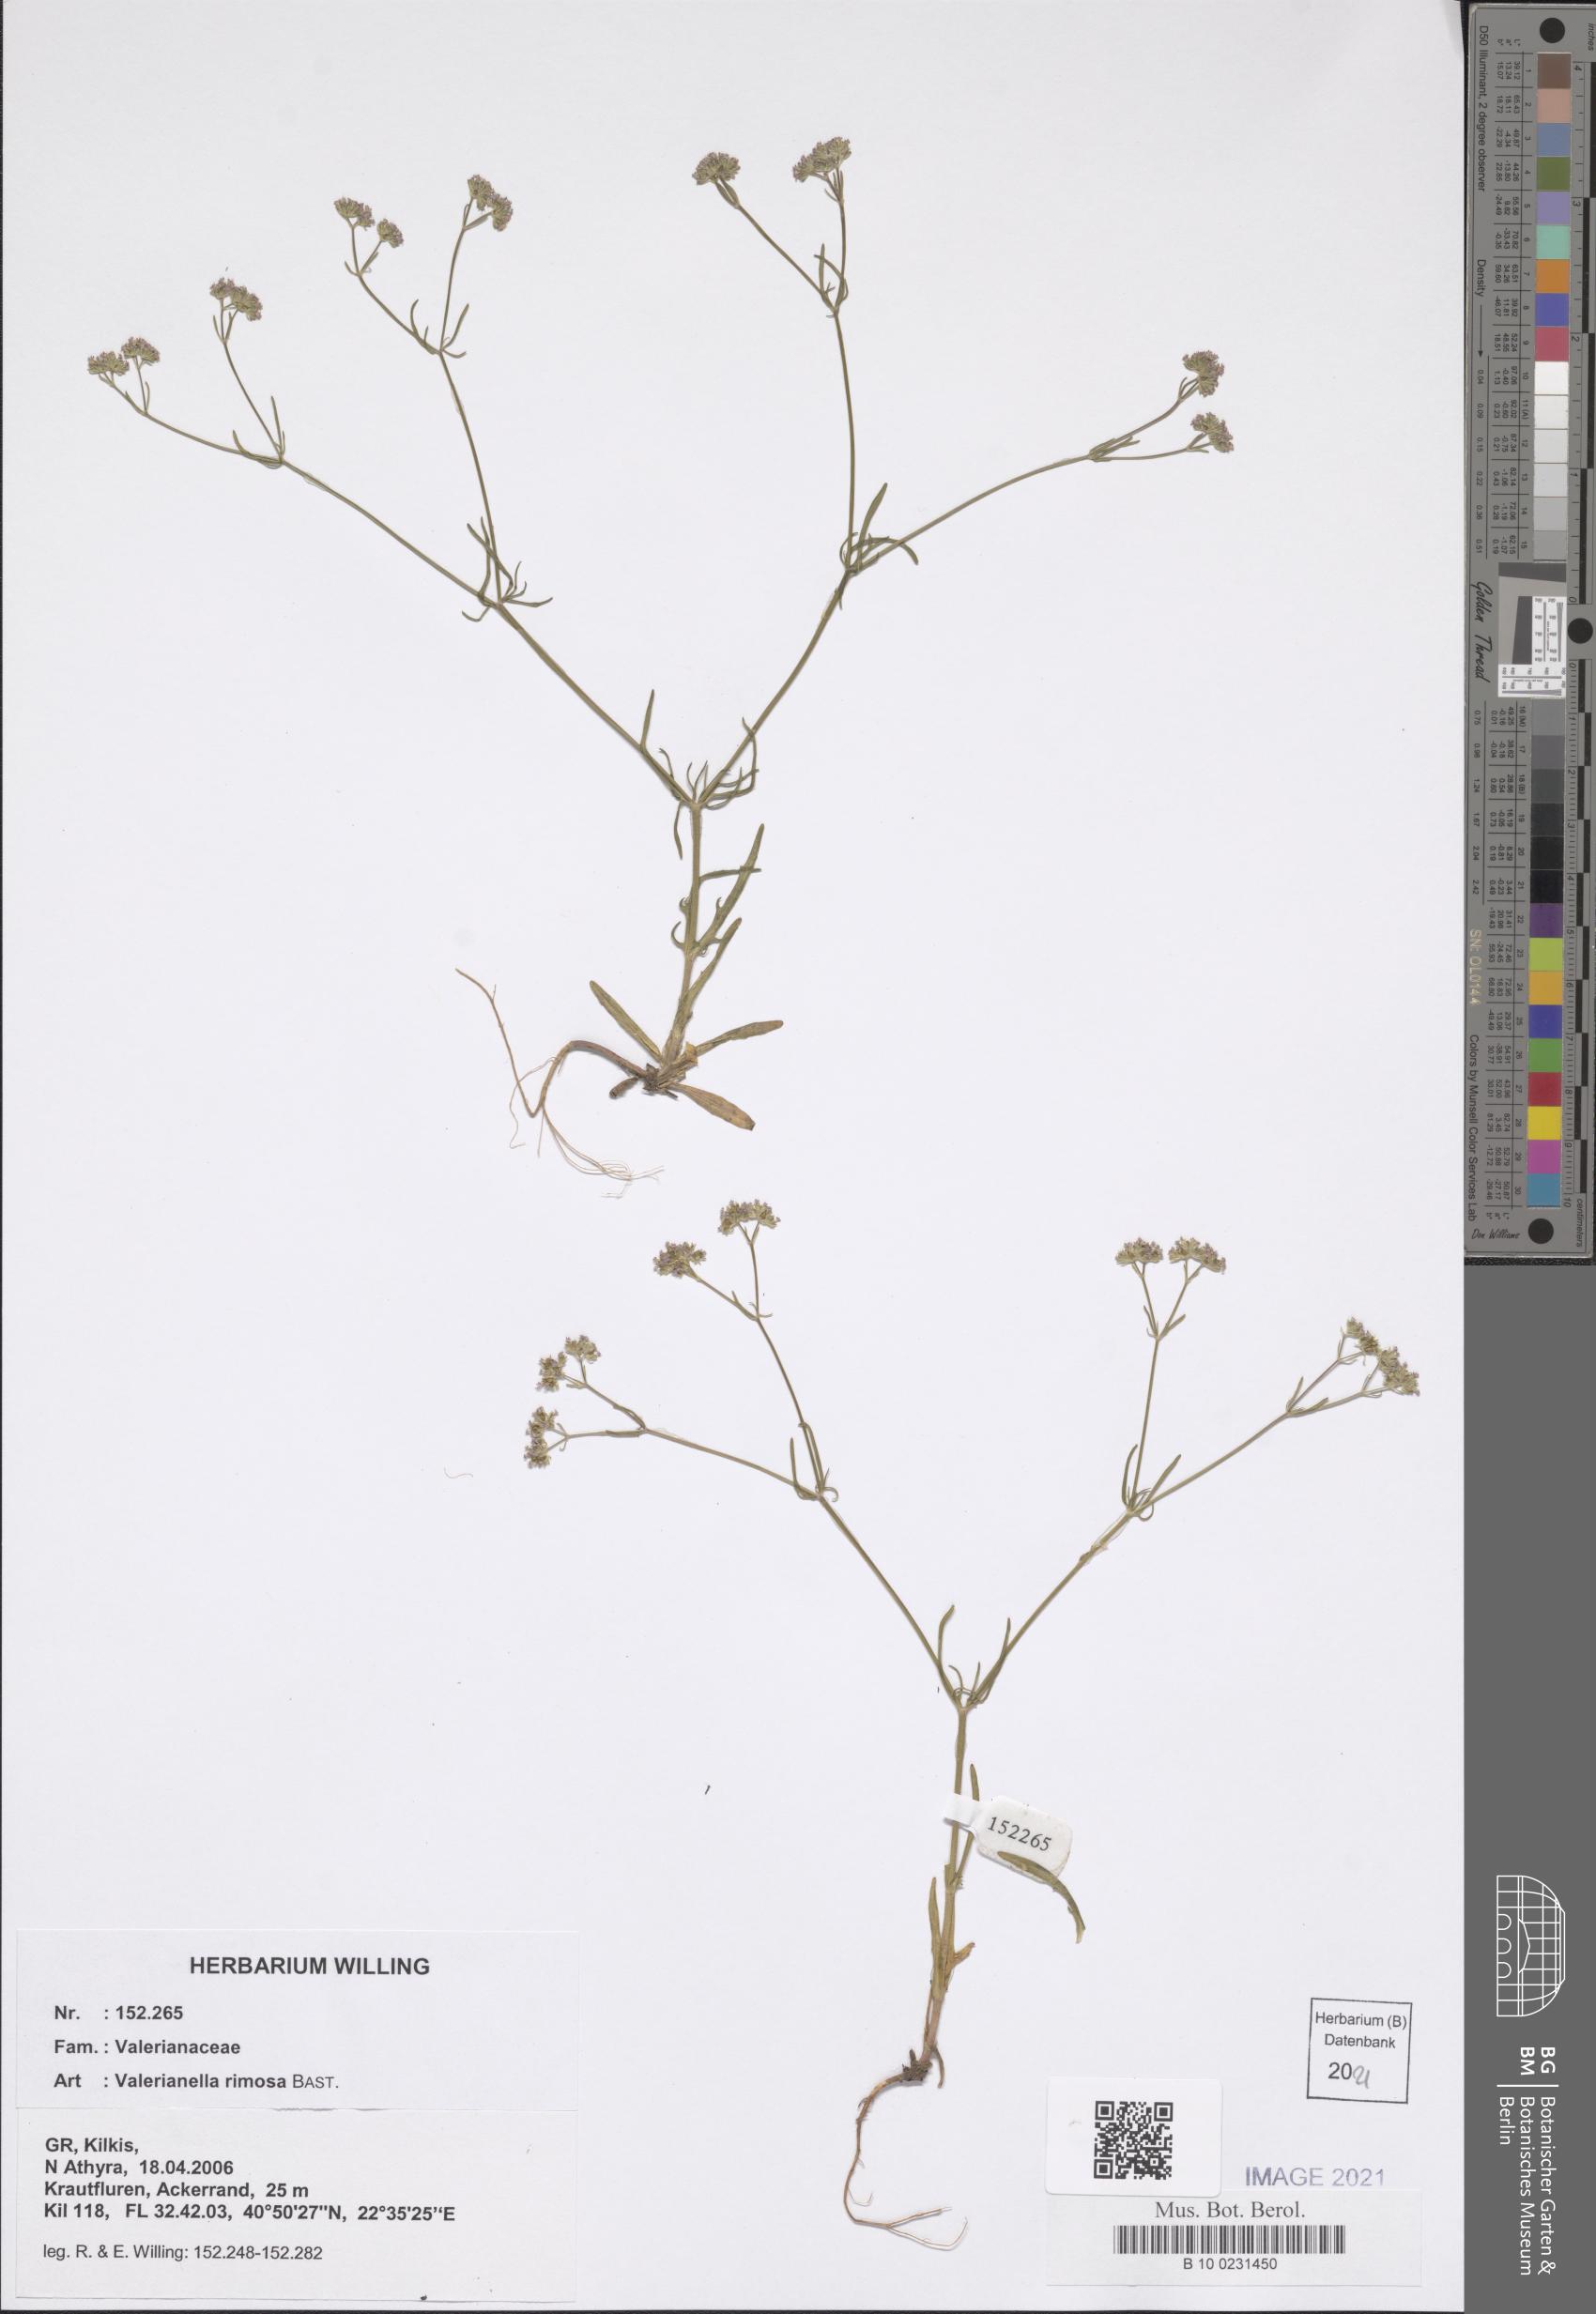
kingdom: Plantae
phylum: Tracheophyta
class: Magnoliopsida
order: Dipsacales
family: Caprifoliaceae
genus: Valerianella
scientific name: Valerianella rimosa
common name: Broad-fruited cornsalad
